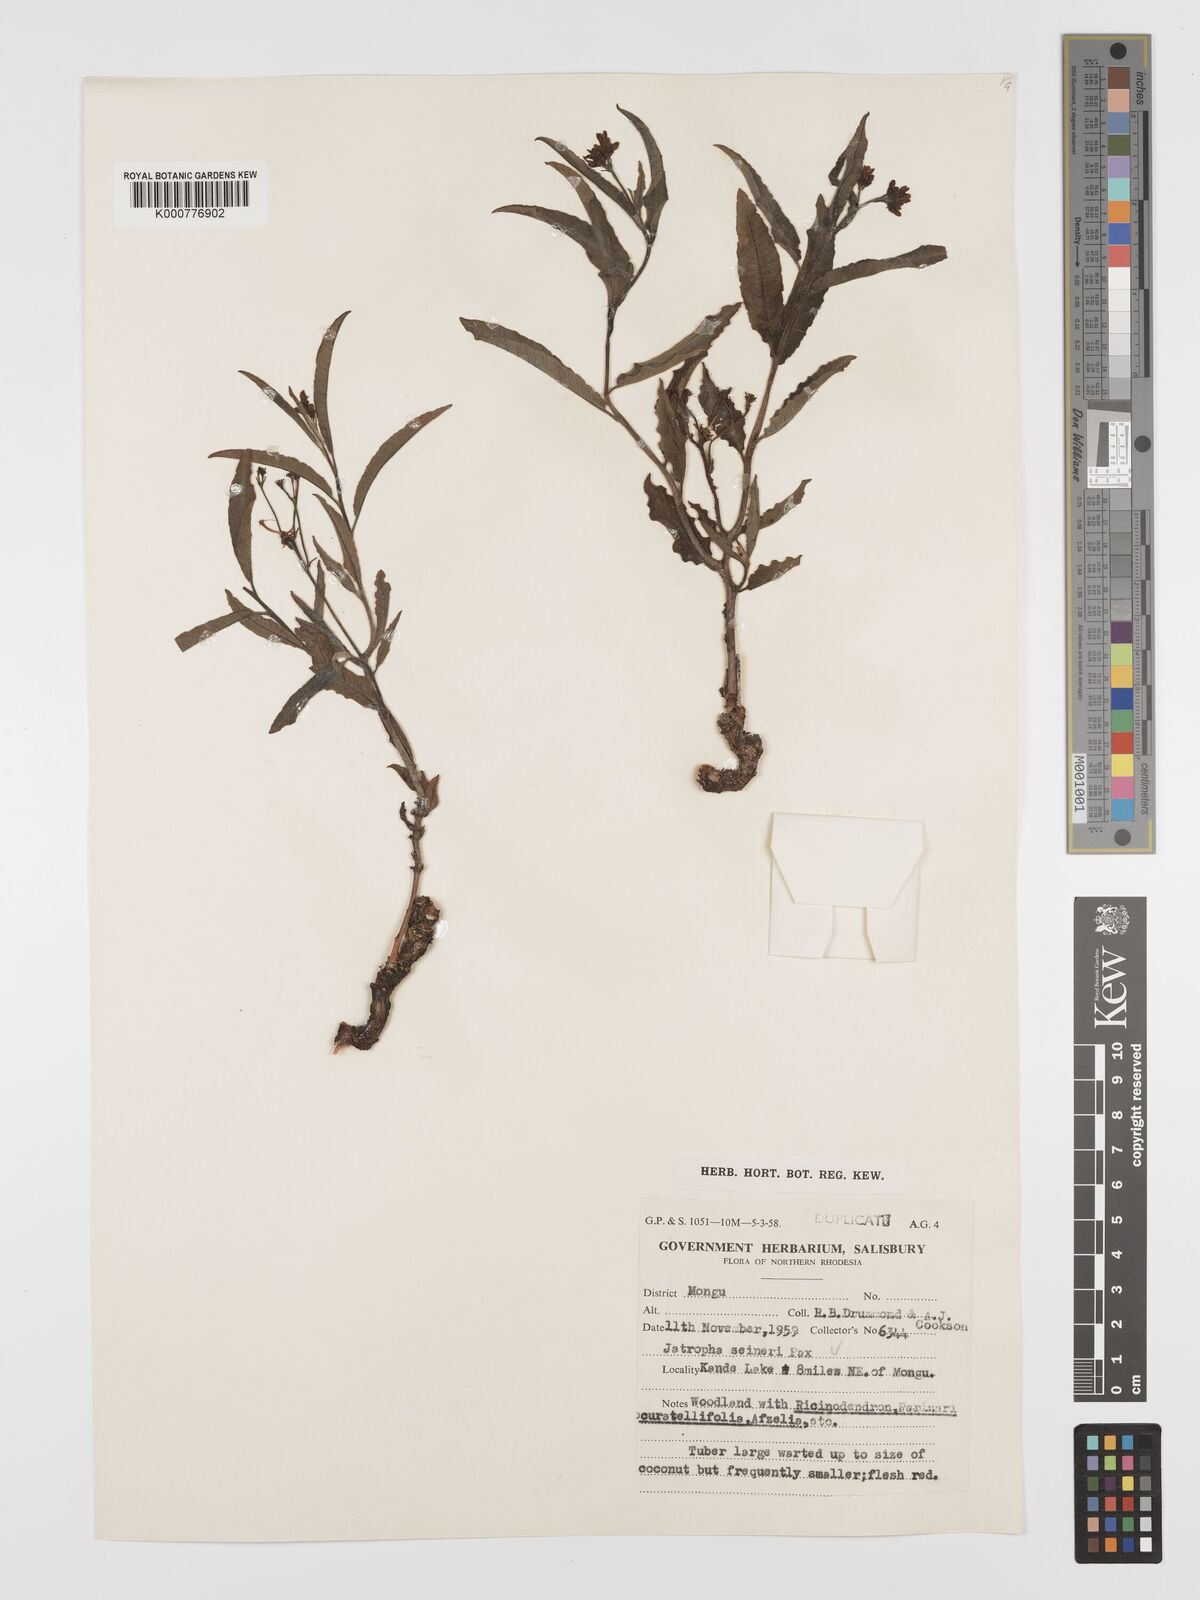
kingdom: Plantae
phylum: Tracheophyta
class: Magnoliopsida
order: Malpighiales
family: Euphorbiaceae
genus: Jatropha
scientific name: Jatropha seineri
